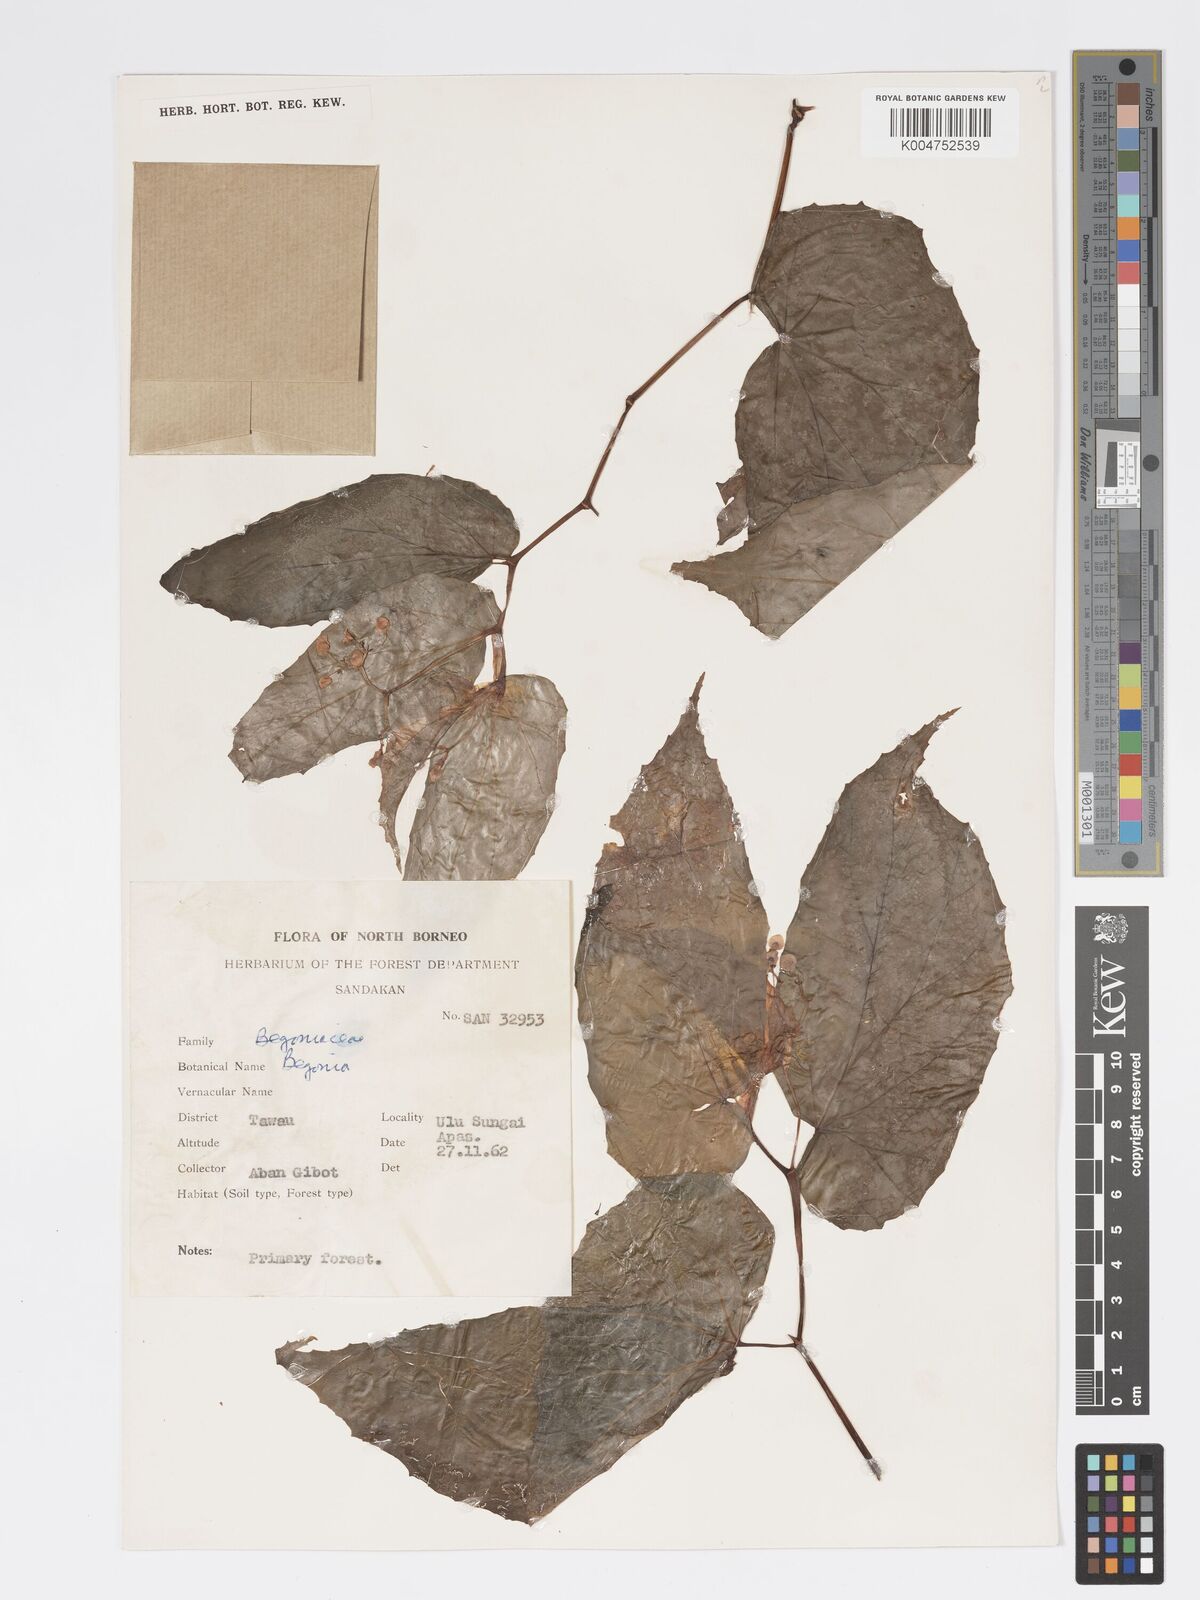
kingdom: Plantae
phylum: Tracheophyta
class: Magnoliopsida
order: Cucurbitales
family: Begoniaceae
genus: Begonia
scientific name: Begonia pryeriana
